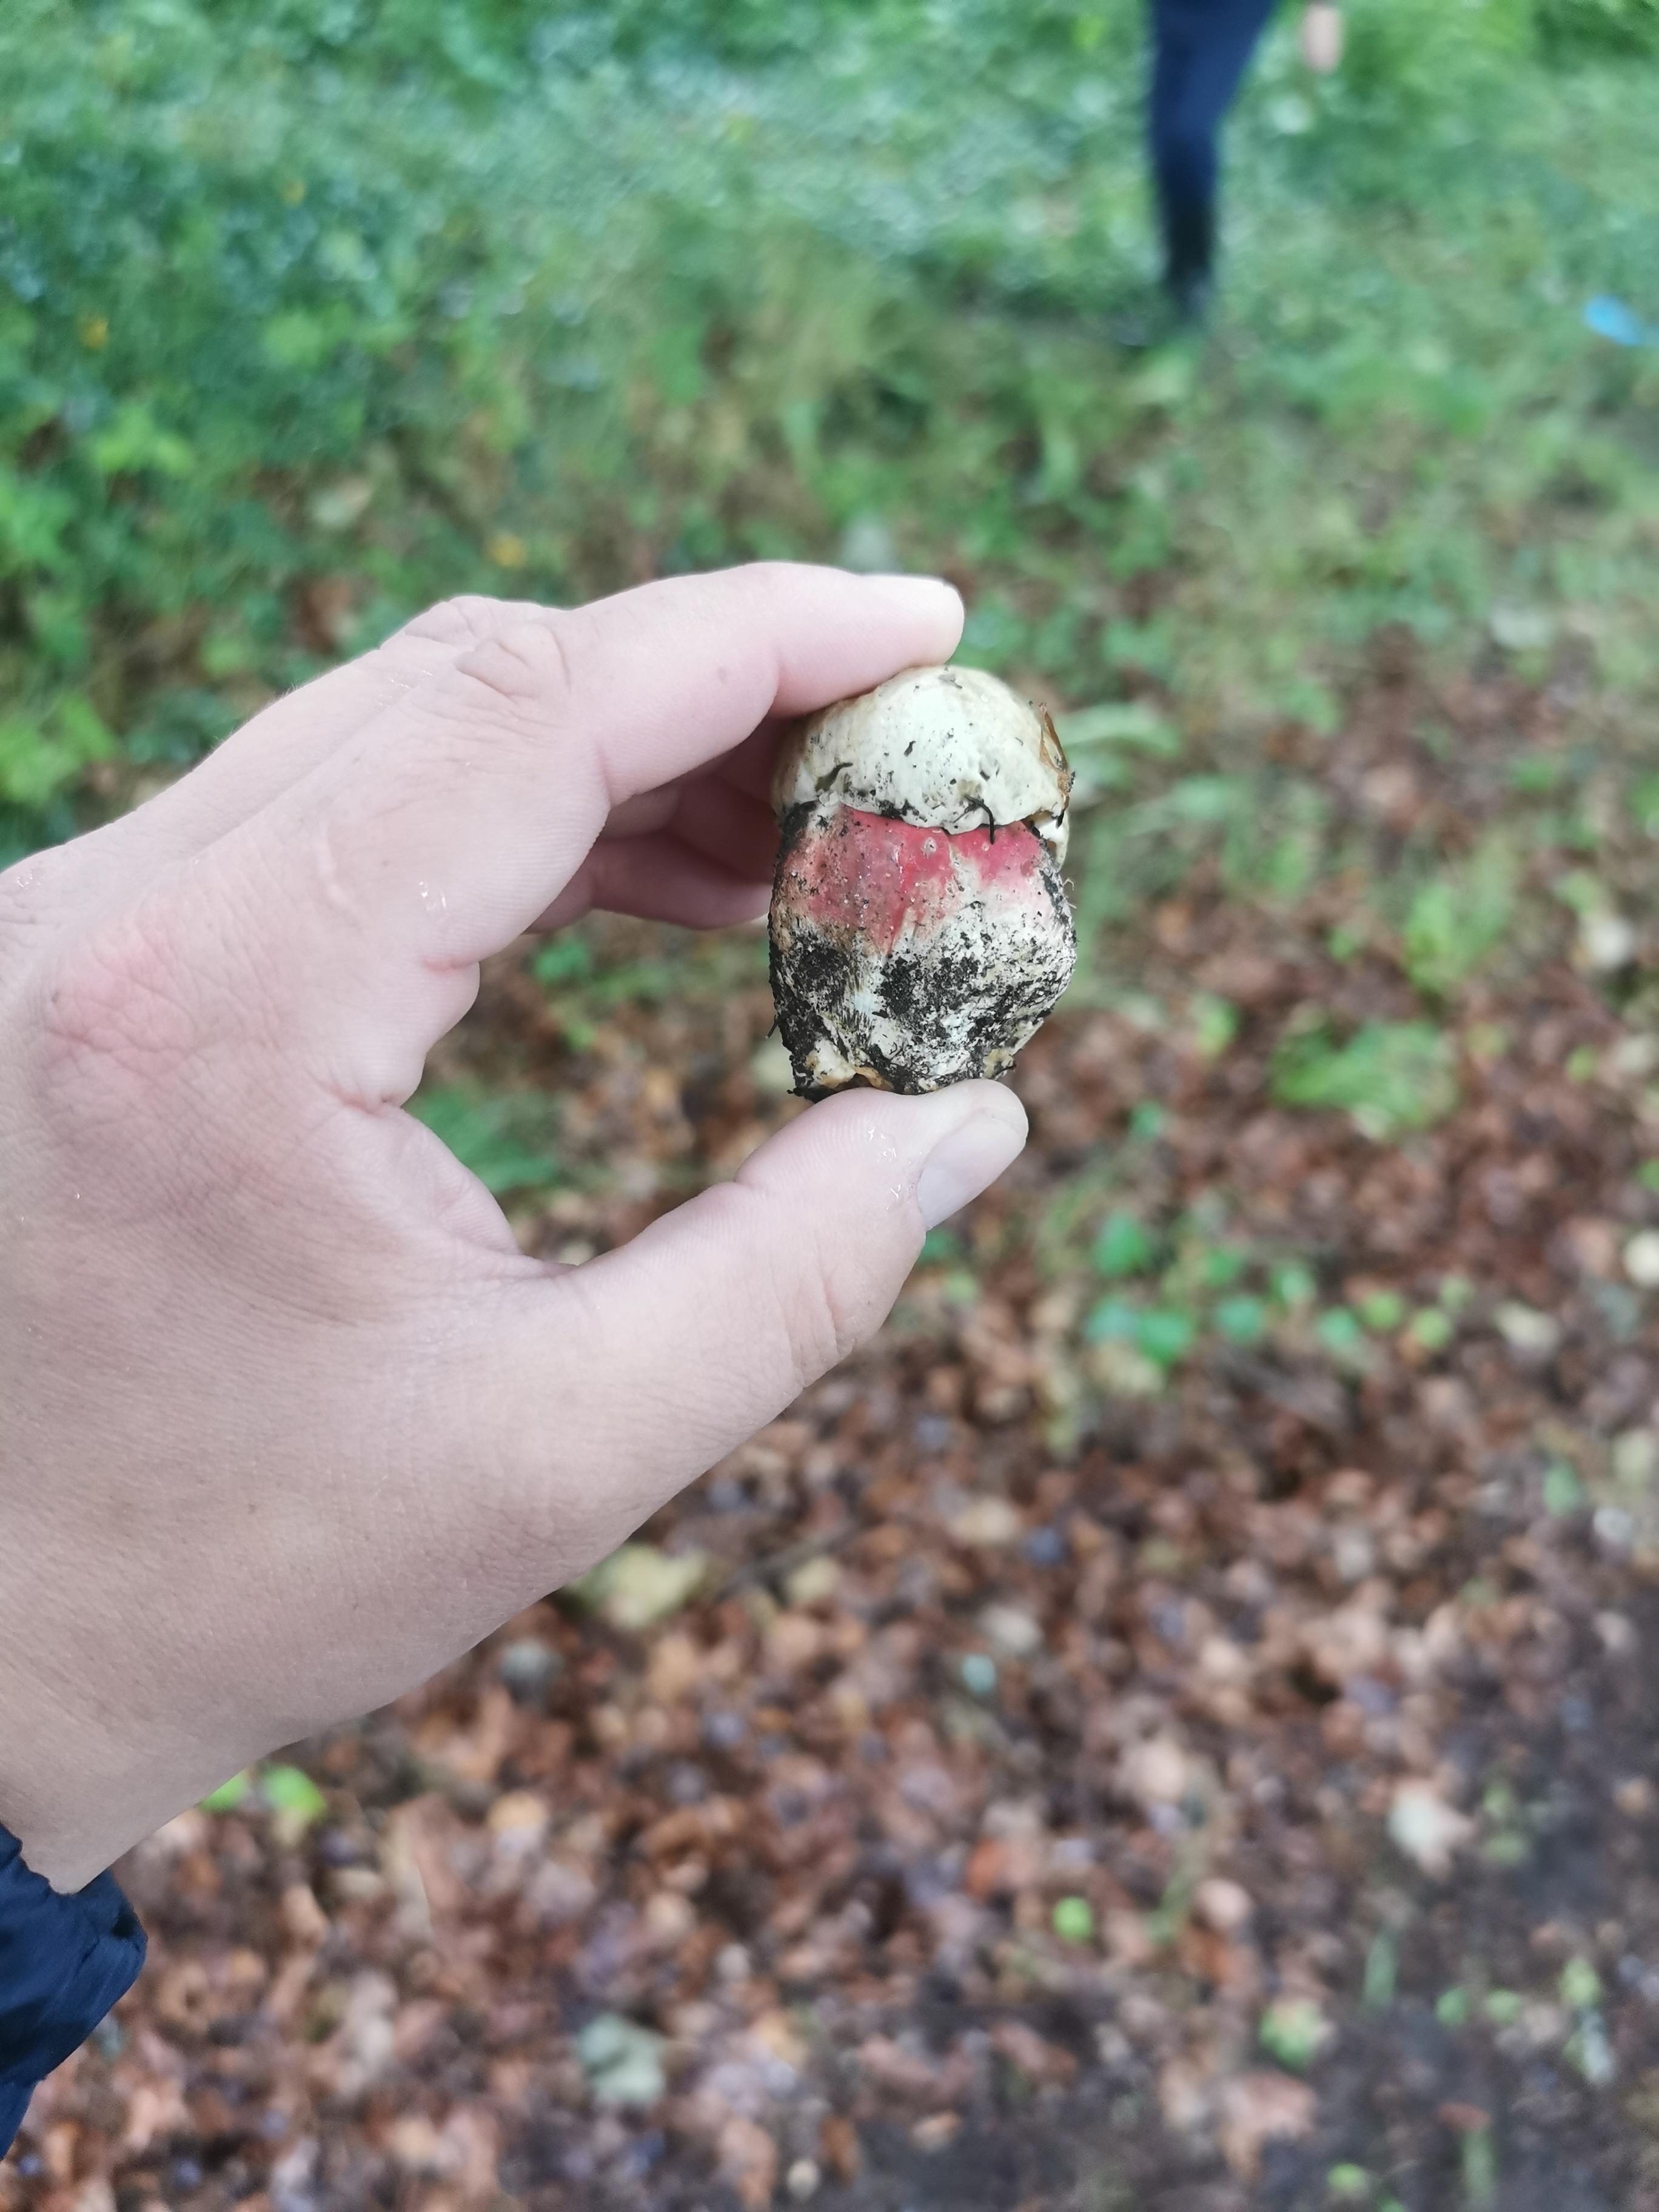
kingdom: Fungi
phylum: Basidiomycota
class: Agaricomycetes
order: Boletales
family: Boletaceae
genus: Rubroboletus
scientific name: Rubroboletus satanas
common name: Satans rørhat
